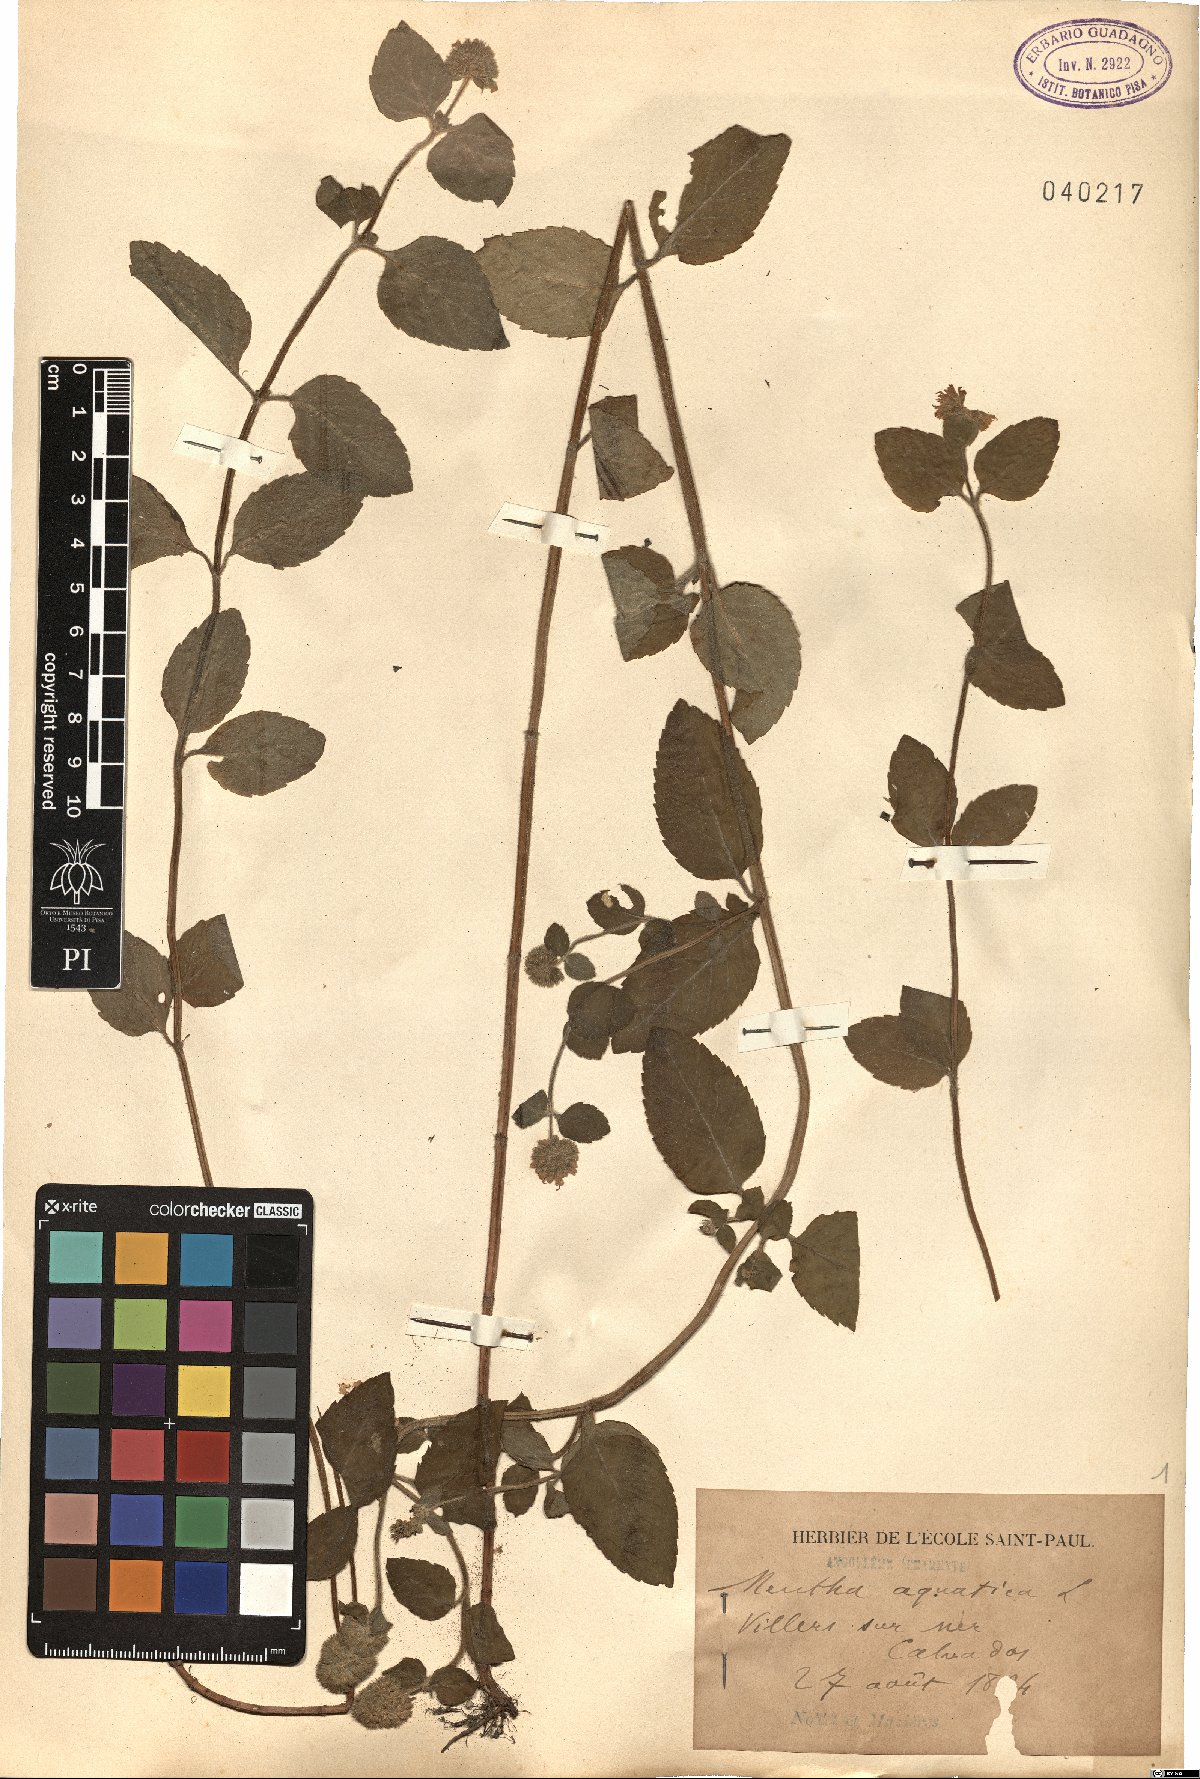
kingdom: Plantae
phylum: Tracheophyta
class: Magnoliopsida
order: Lamiales
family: Lamiaceae
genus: Mentha
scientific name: Mentha aquatica
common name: Water mint
